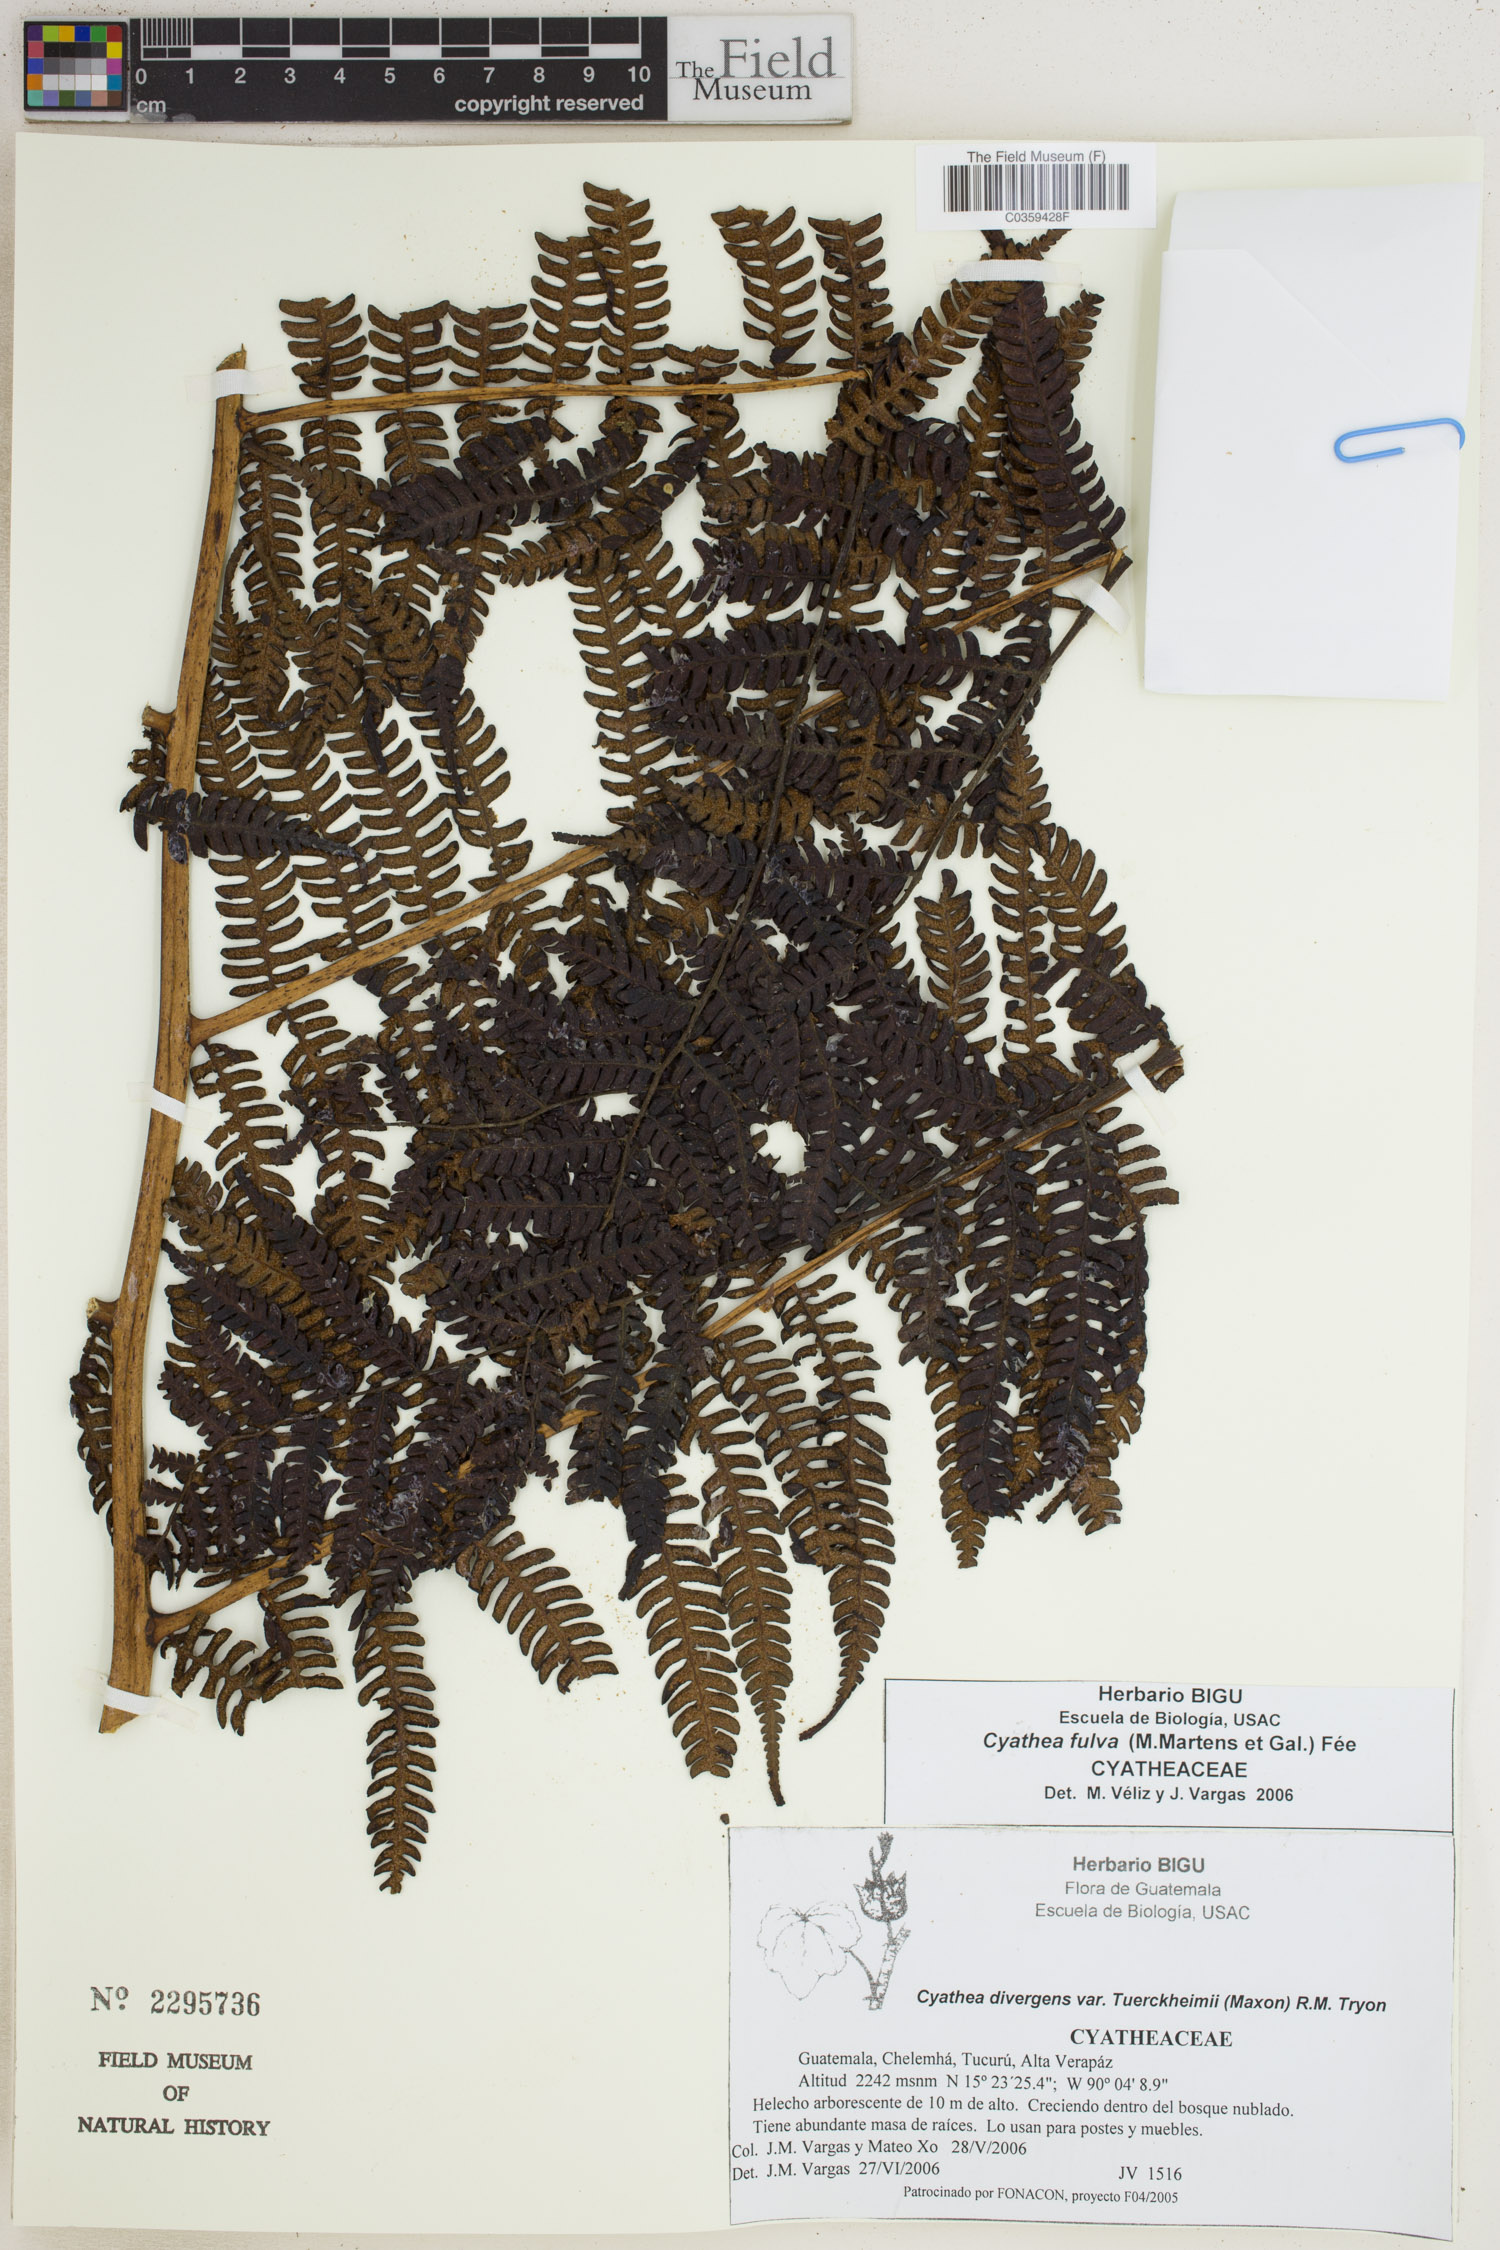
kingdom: Plantae
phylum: Tracheophyta
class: Polypodiopsida
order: Cyatheales
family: Cyatheaceae
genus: Cyathea
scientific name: Cyathea fulva
